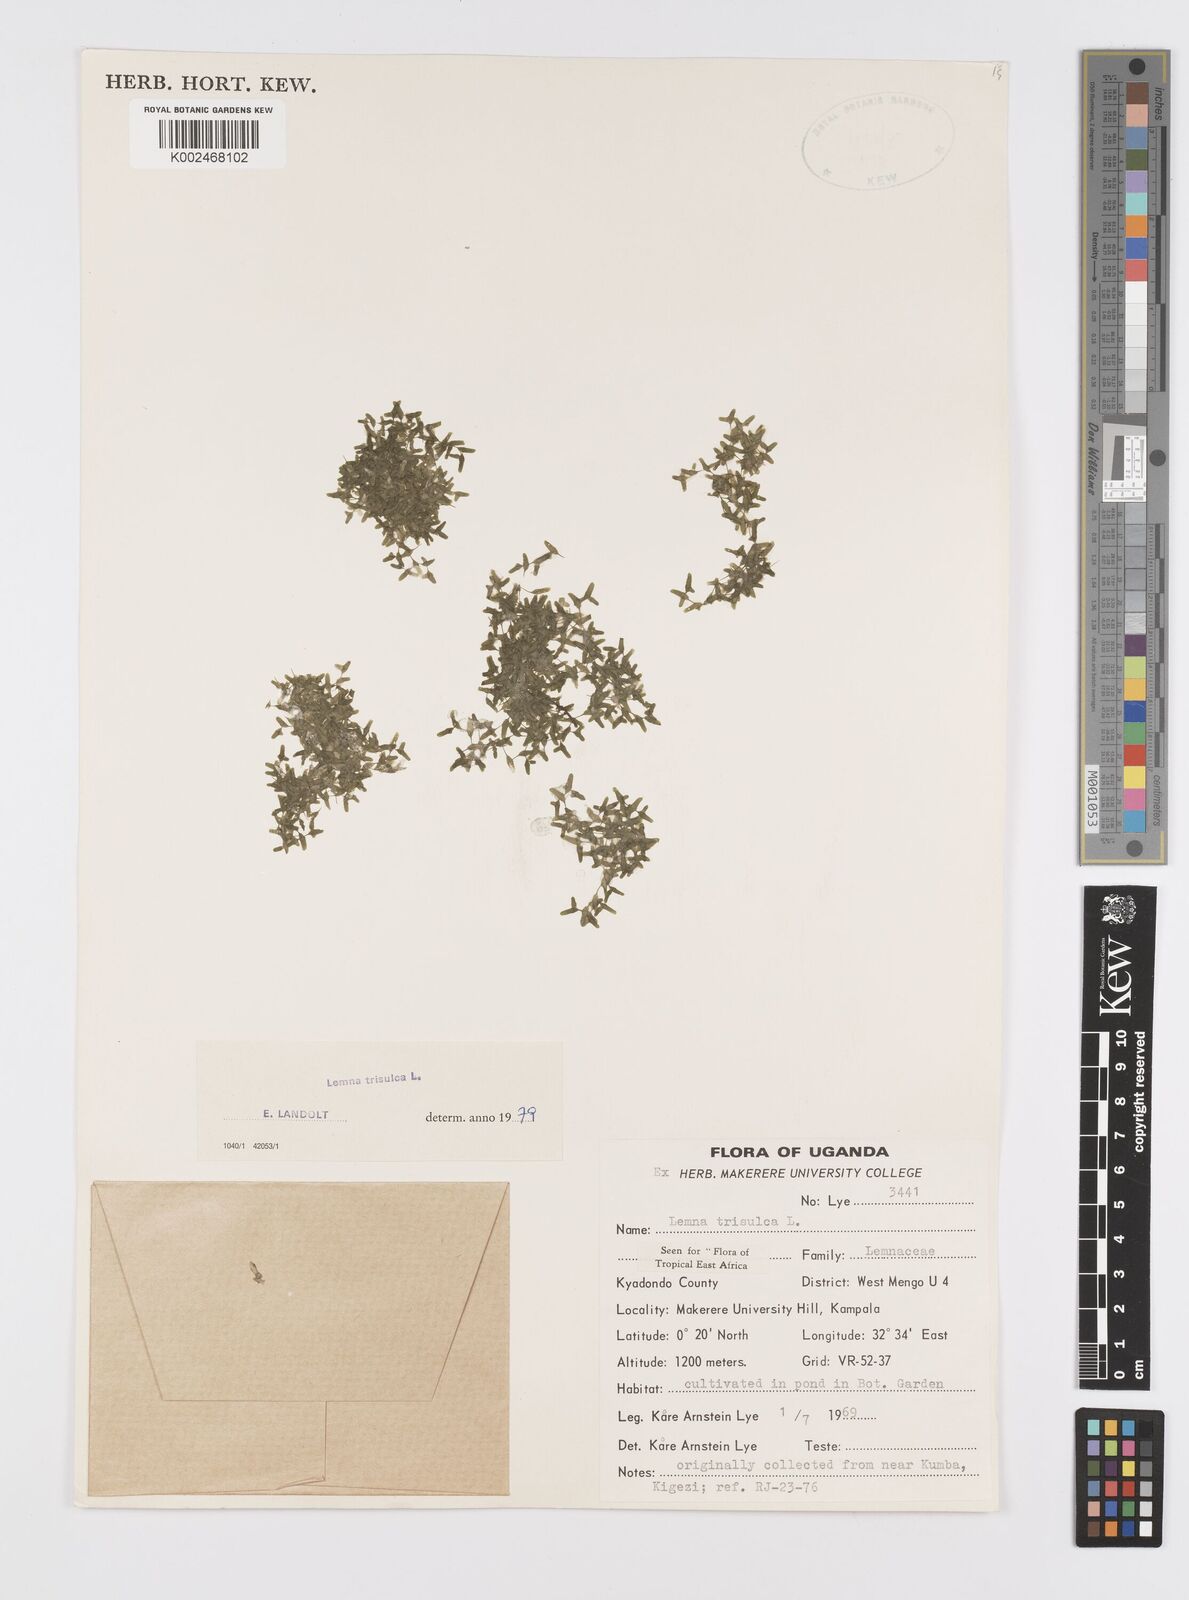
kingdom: Plantae
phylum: Tracheophyta
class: Liliopsida
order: Alismatales
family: Araceae
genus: Lemna
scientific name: Lemna trisulca
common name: Ivy-leaved duckweed
